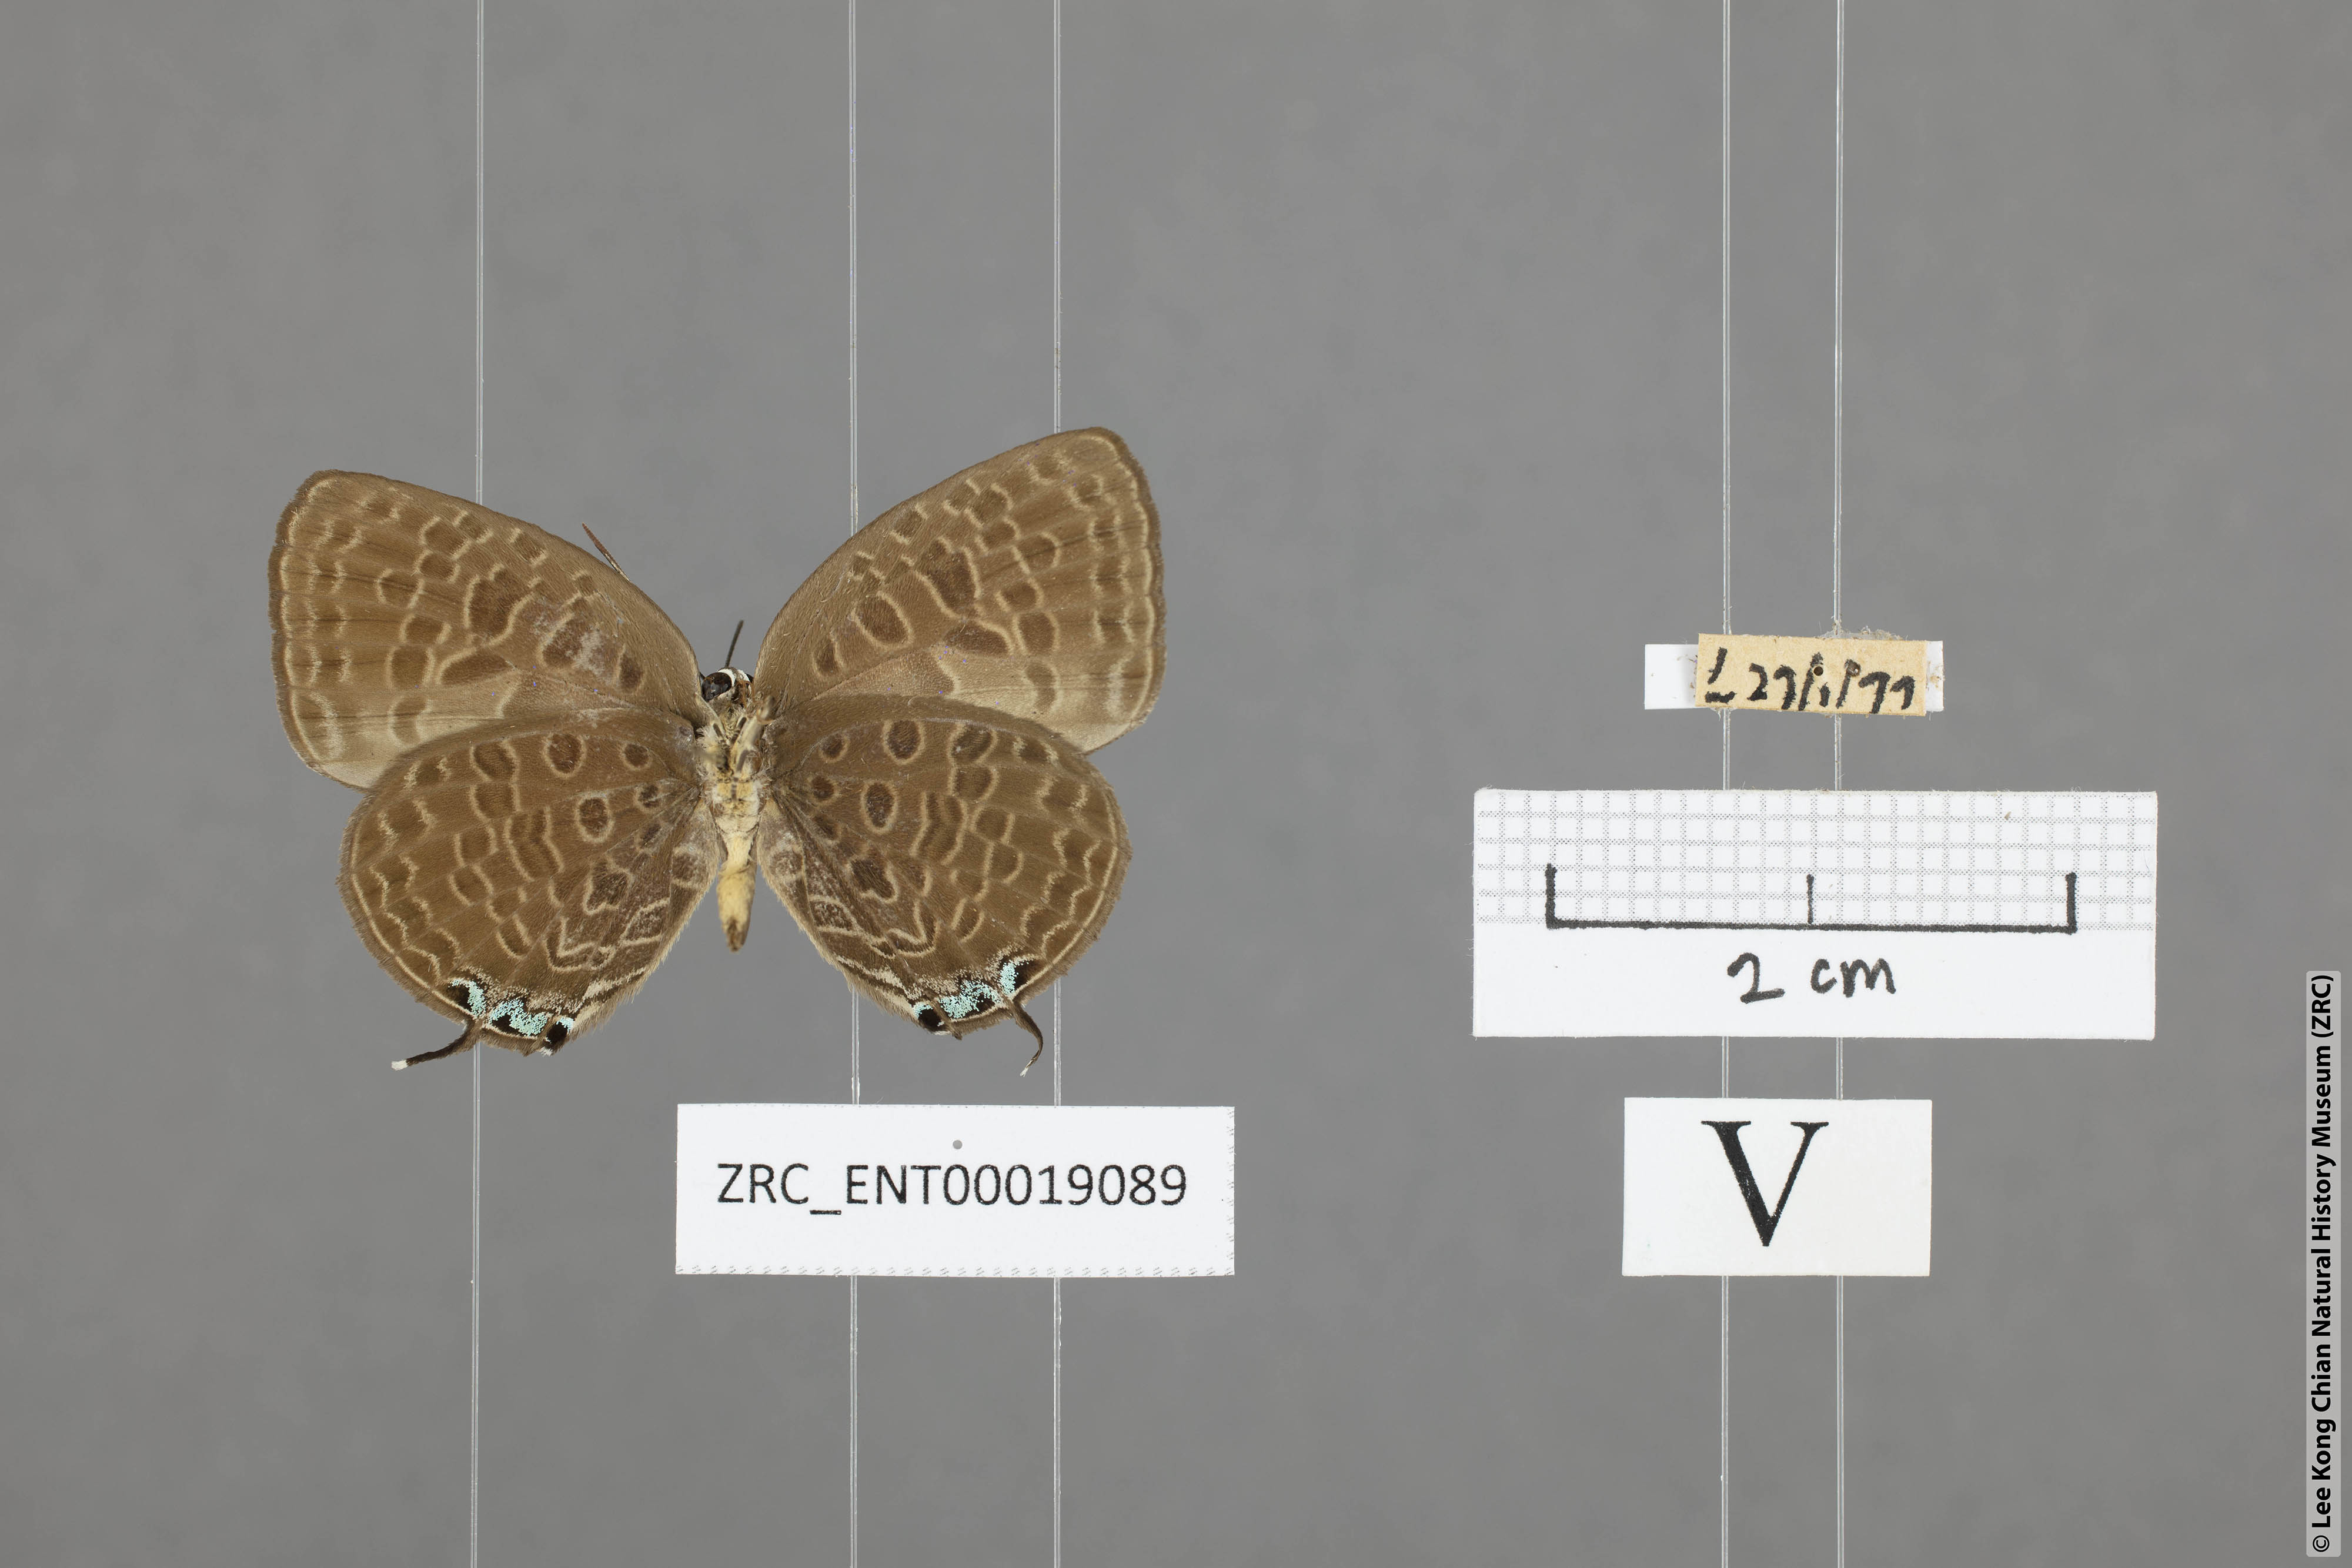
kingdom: Animalia
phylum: Arthropoda
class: Insecta
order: Lepidoptera
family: Lycaenidae
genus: Arhopala
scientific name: Arhopala alitaeus
